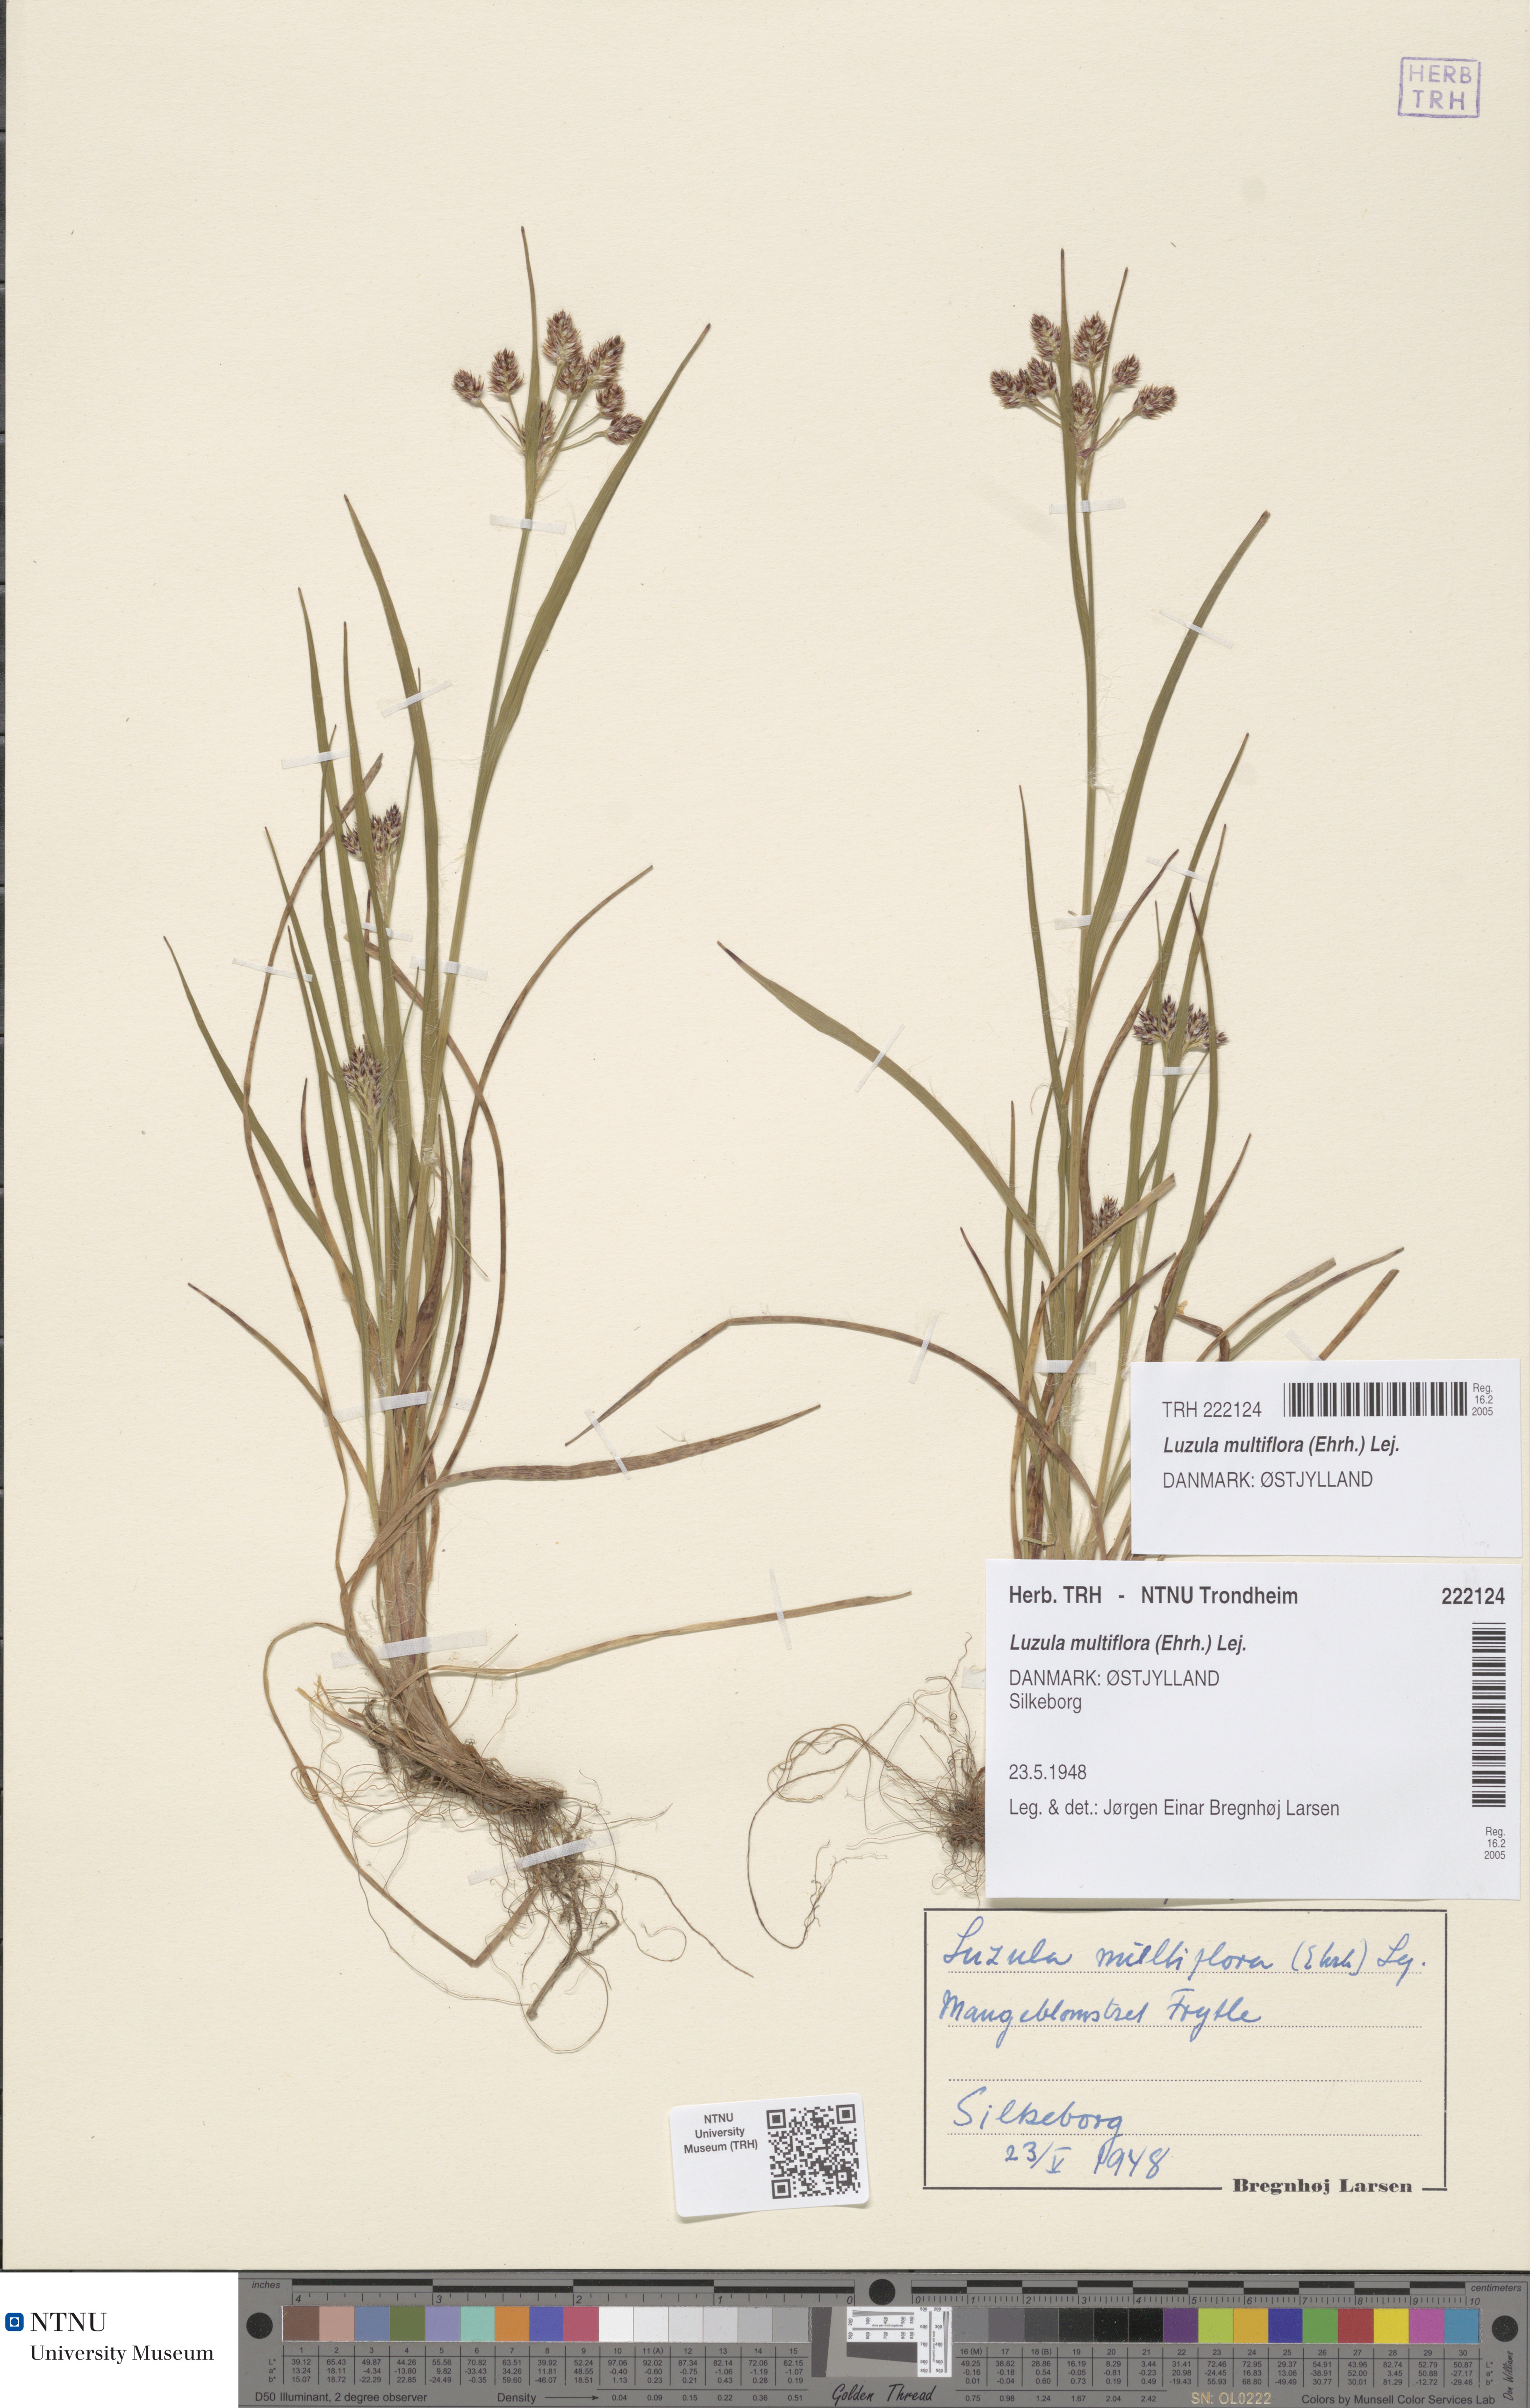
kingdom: Plantae
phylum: Tracheophyta
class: Liliopsida
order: Poales
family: Juncaceae
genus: Luzula
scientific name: Luzula multiflora
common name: Heath wood-rush
